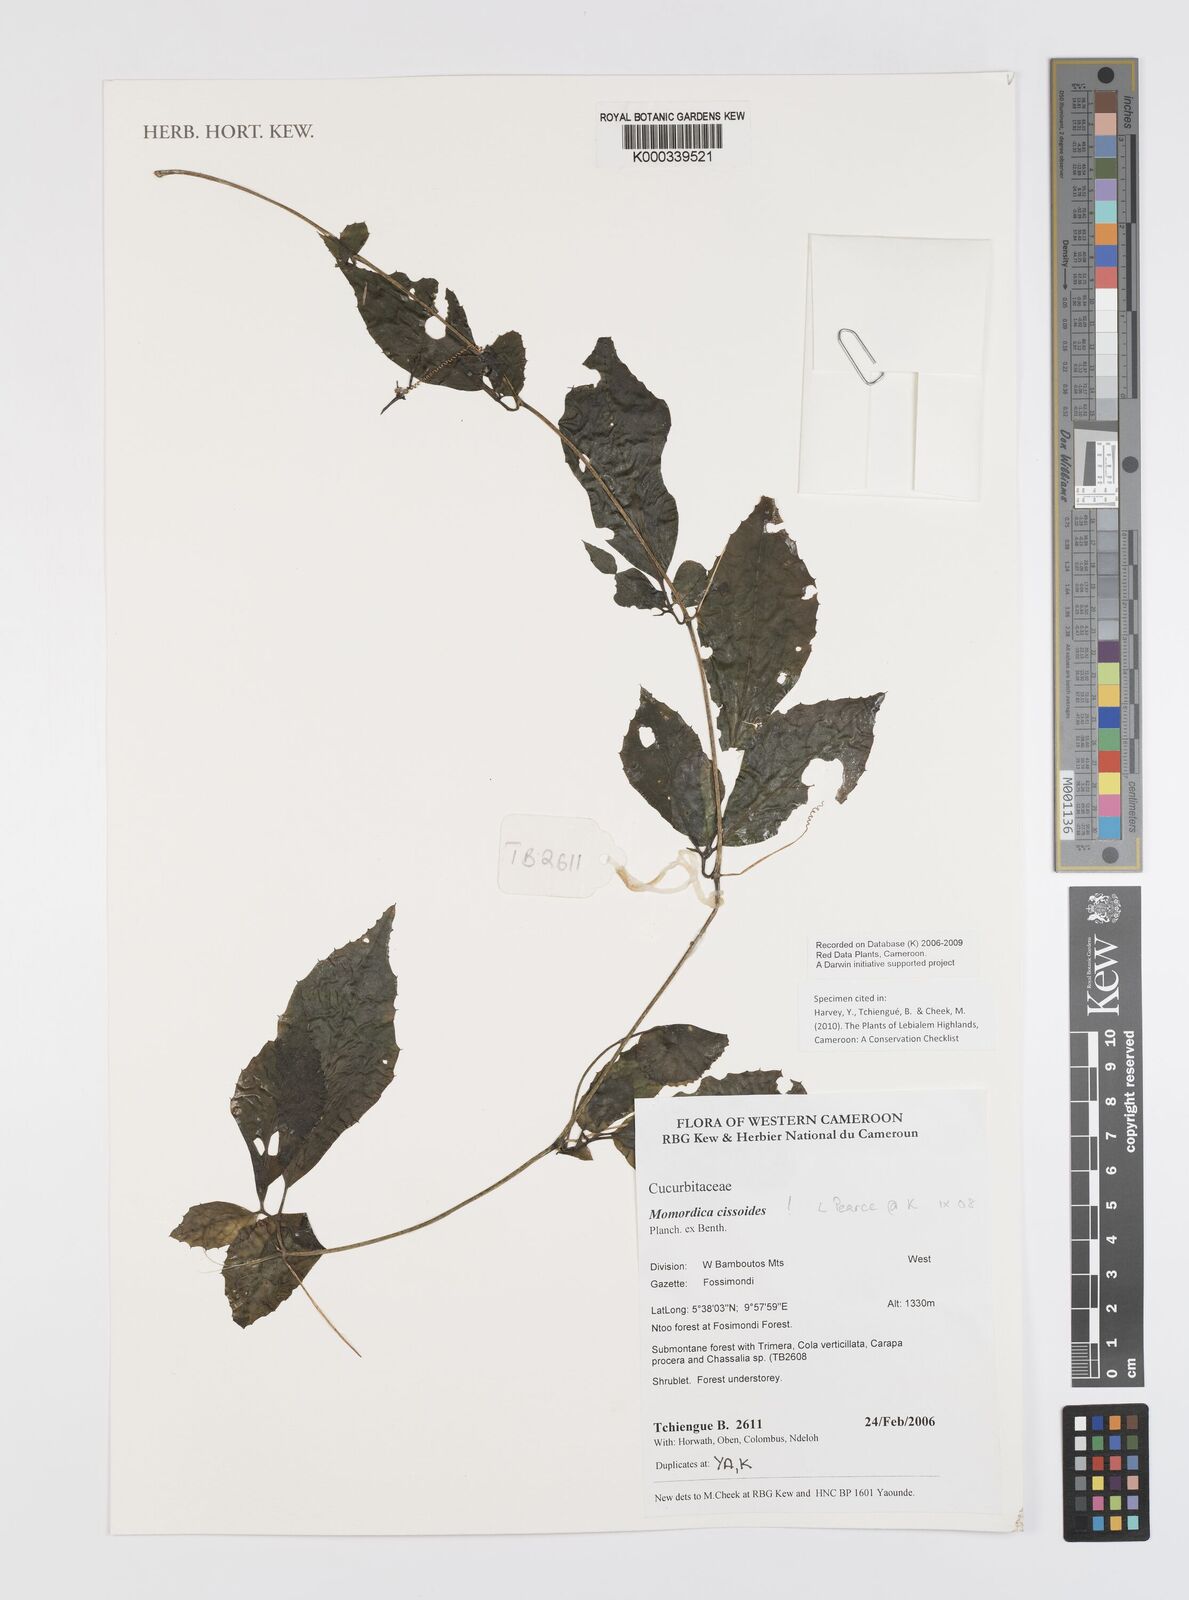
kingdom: Plantae
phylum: Tracheophyta
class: Magnoliopsida
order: Cucurbitales
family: Cucurbitaceae
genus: Momordica
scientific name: Momordica cissoides
